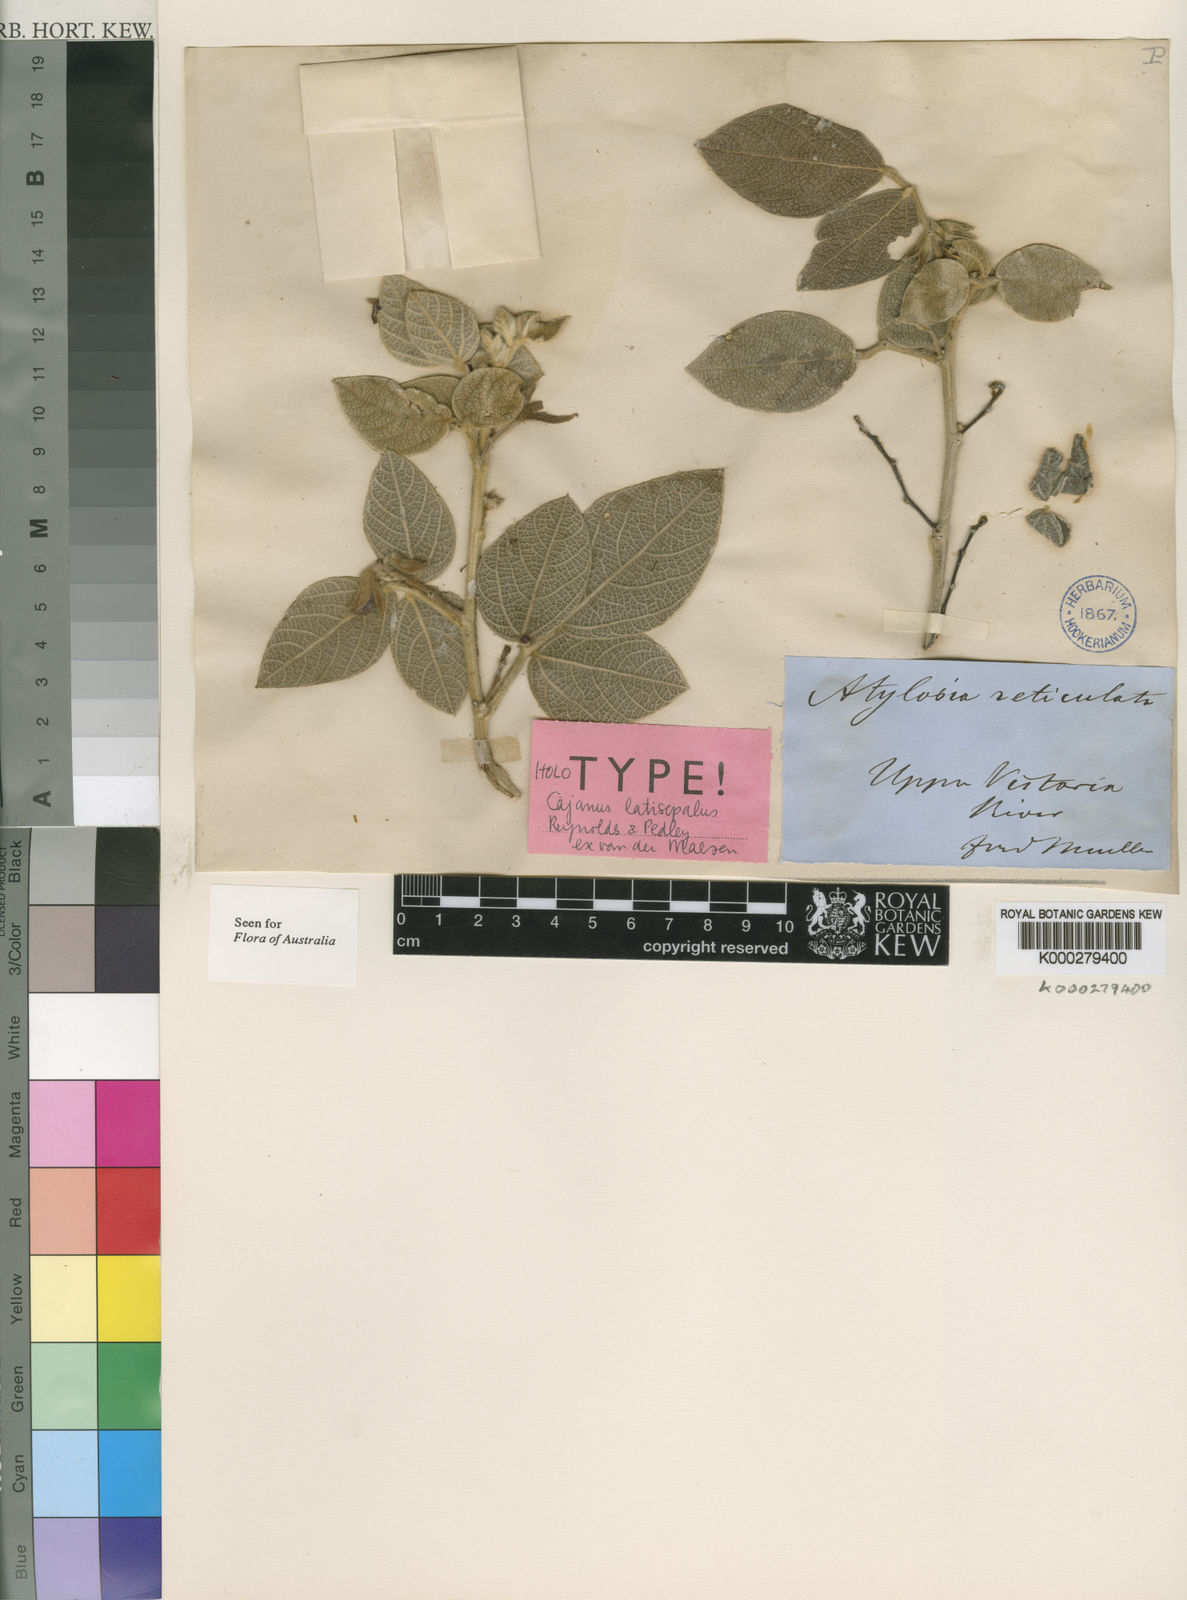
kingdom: Plantae
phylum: Tracheophyta
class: Magnoliopsida
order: Fabales
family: Fabaceae
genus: Cajanus
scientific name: Cajanus latisepalus
